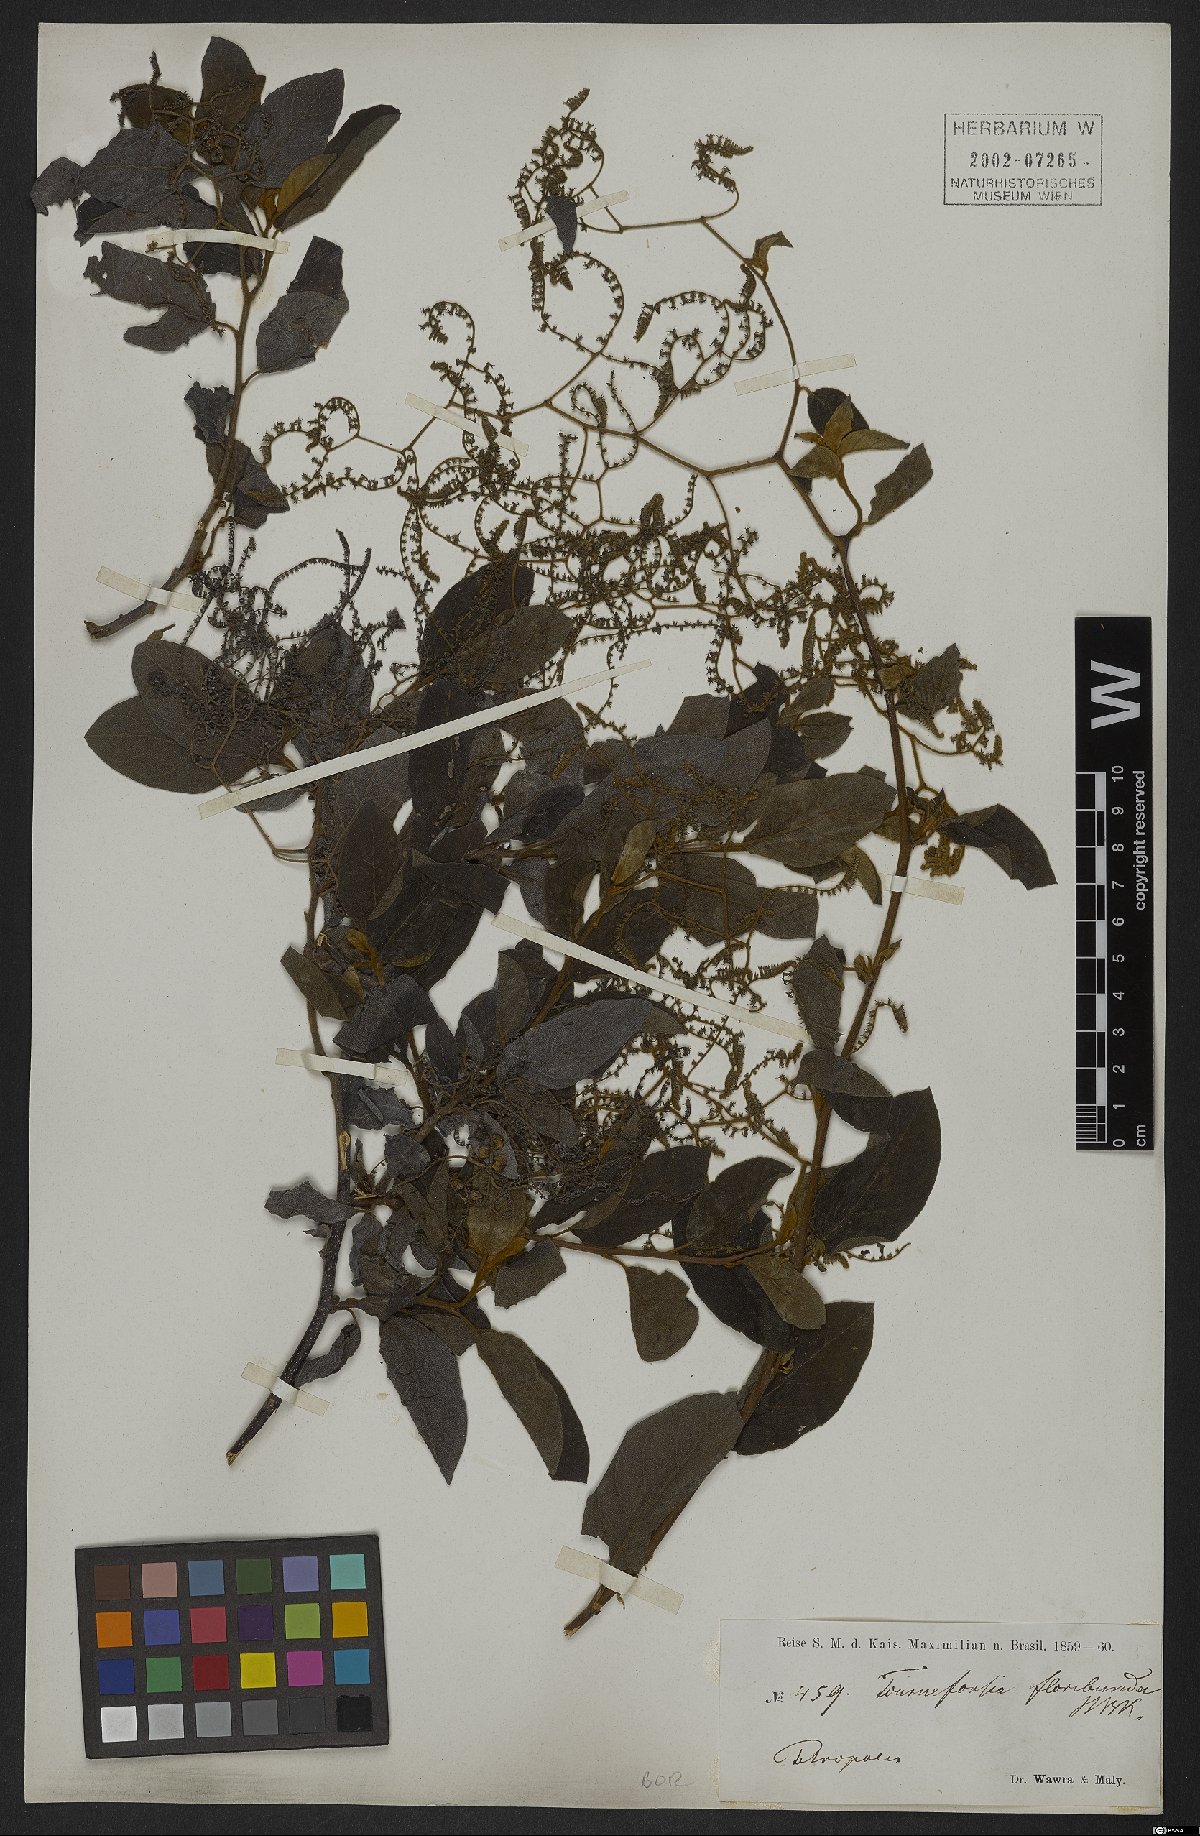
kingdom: Plantae
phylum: Tracheophyta
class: Magnoliopsida
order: Boraginales
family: Heliotropiaceae
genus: Myriopus
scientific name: Myriopus volubilis
